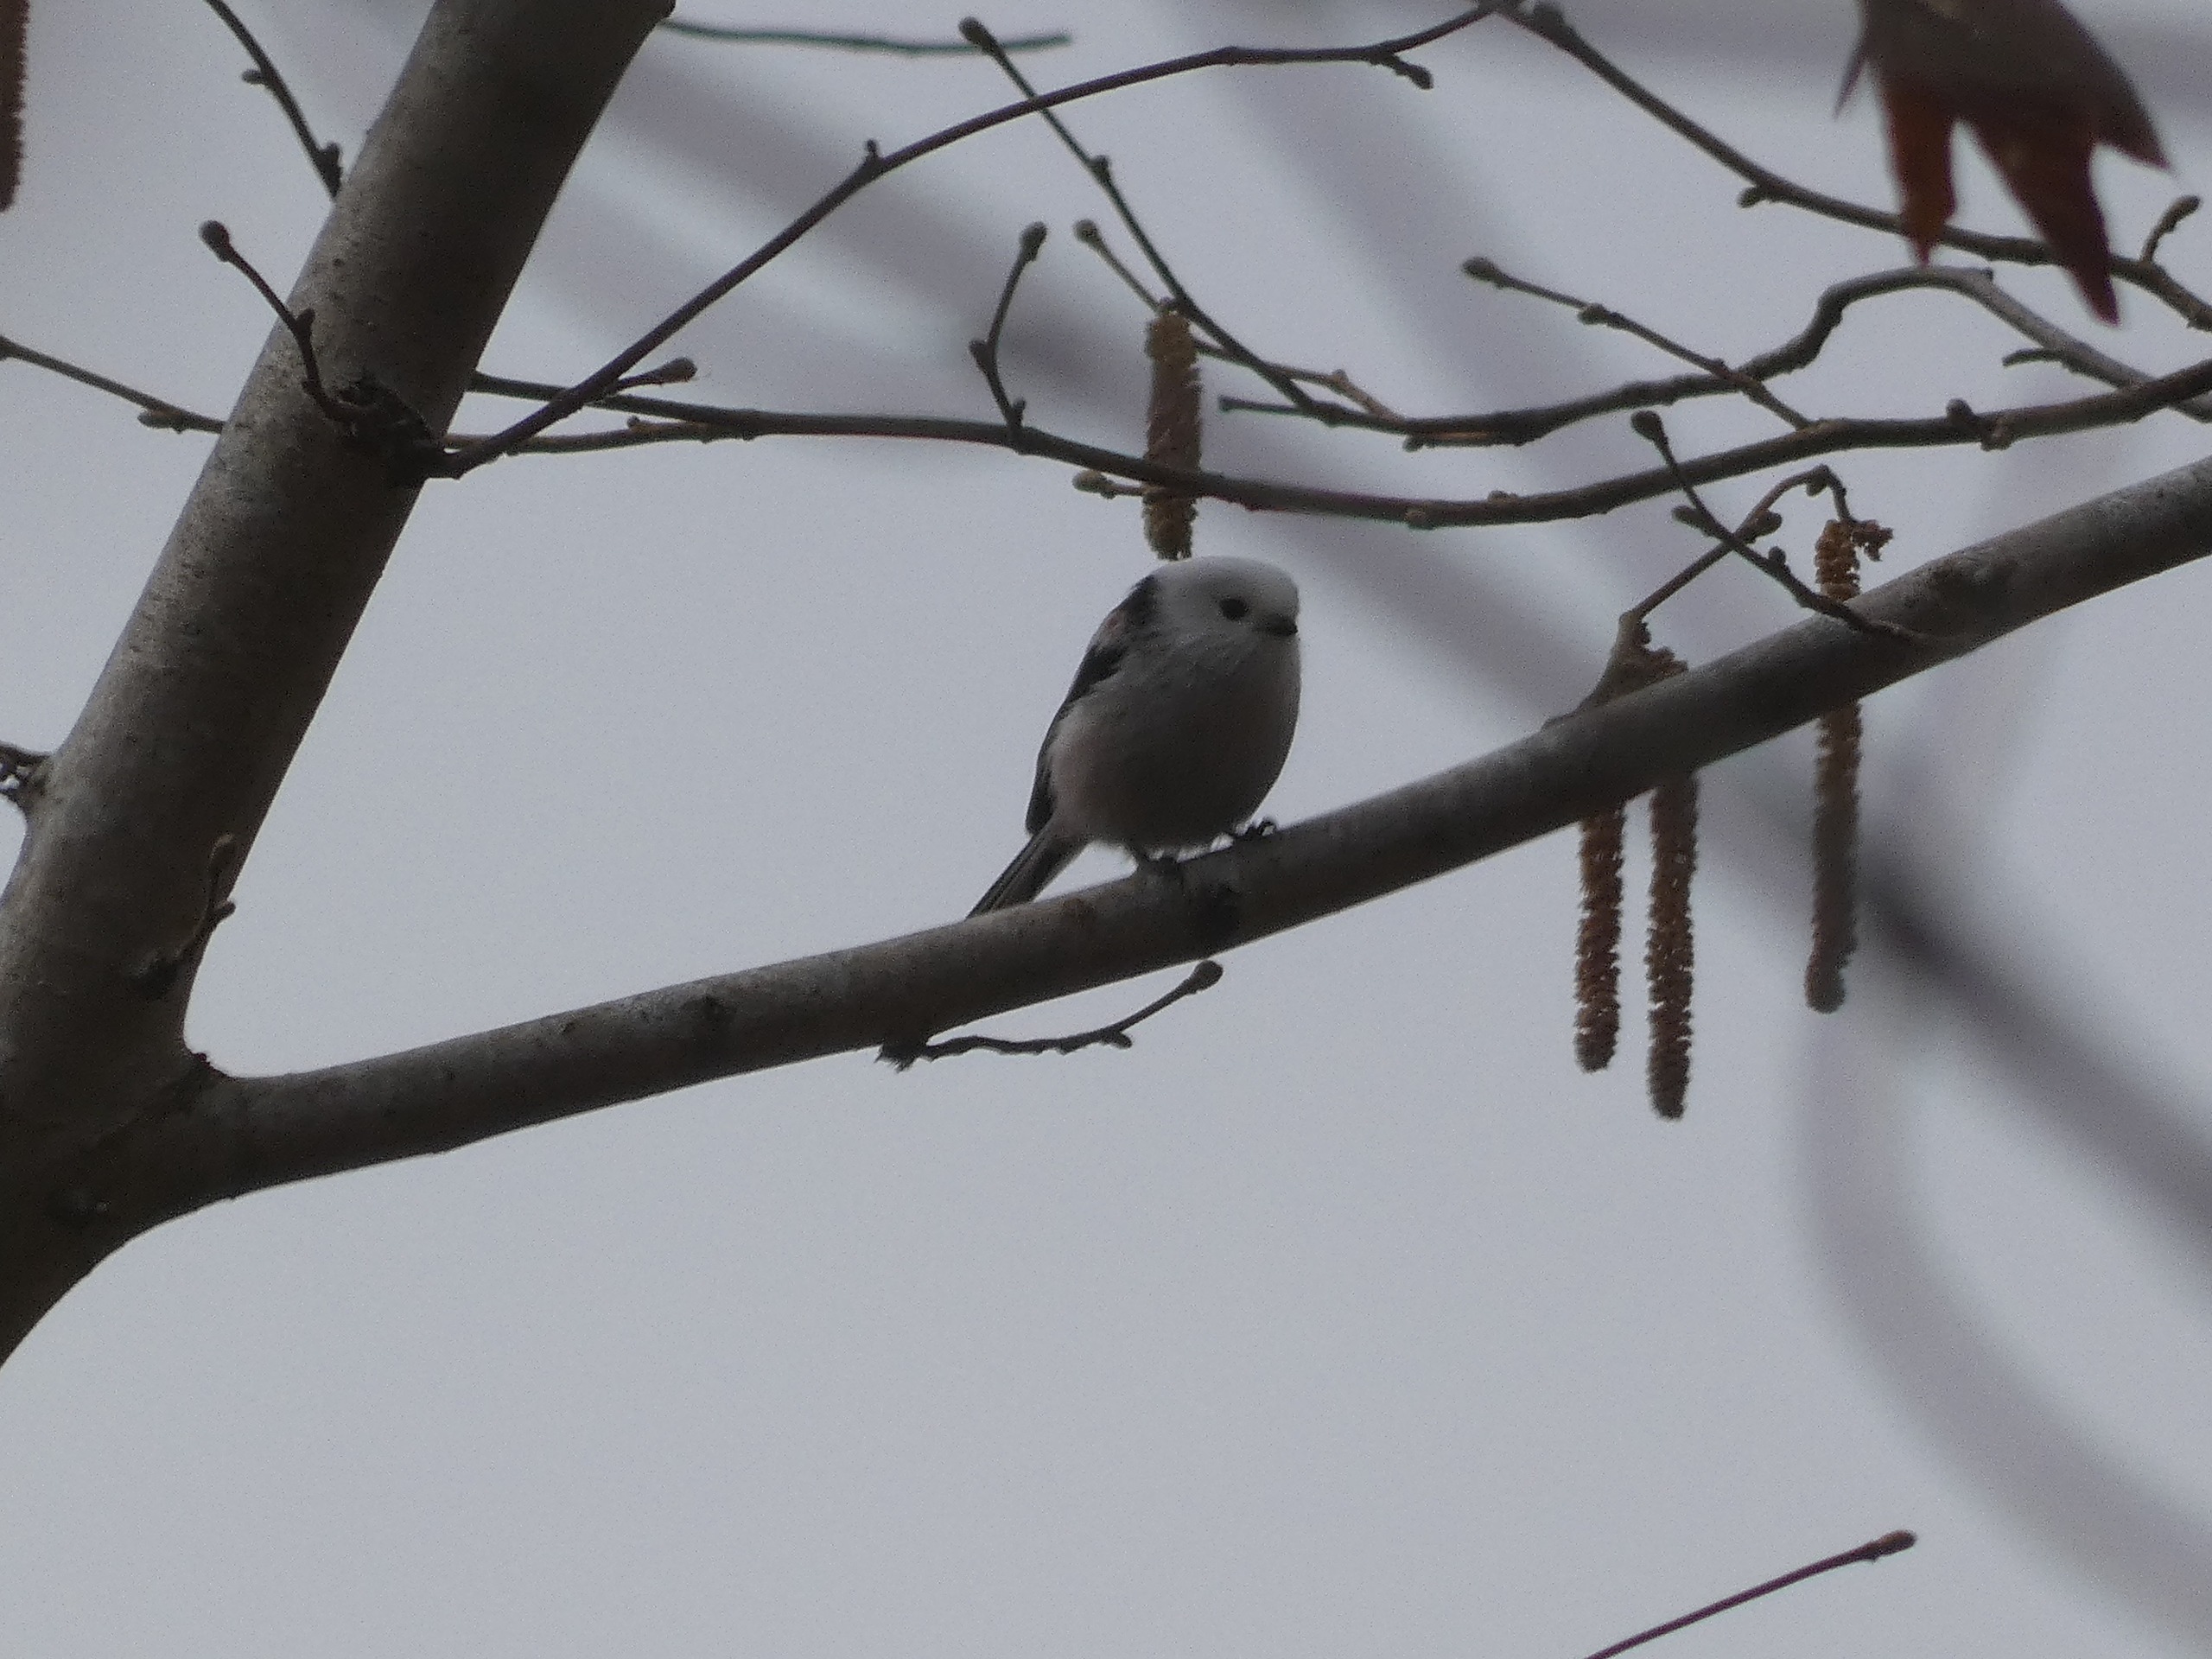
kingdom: Animalia
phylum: Chordata
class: Aves
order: Passeriformes
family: Aegithalidae
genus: Aegithalos
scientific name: Aegithalos caudatus
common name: Nordlig halemejse
